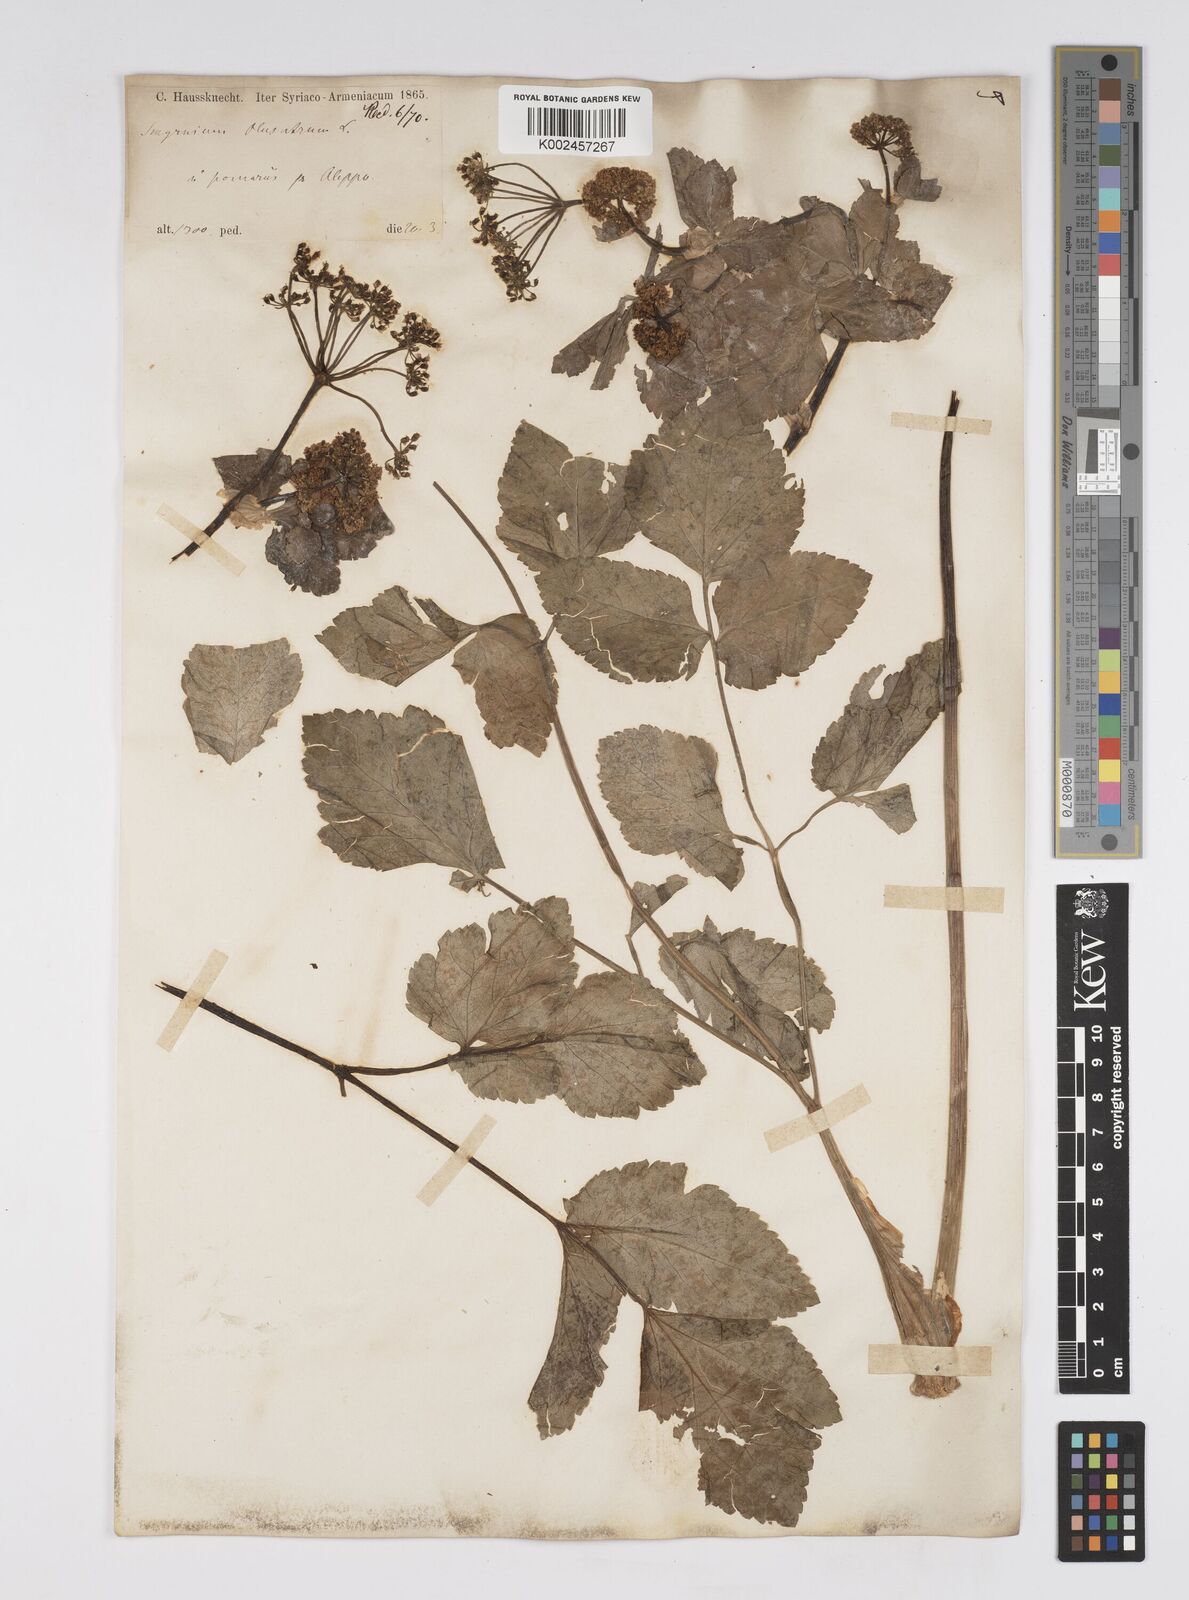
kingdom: Plantae
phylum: Tracheophyta
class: Magnoliopsida
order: Apiales
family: Apiaceae
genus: Smyrnium
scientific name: Smyrnium olusatrum
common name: Alexanders
